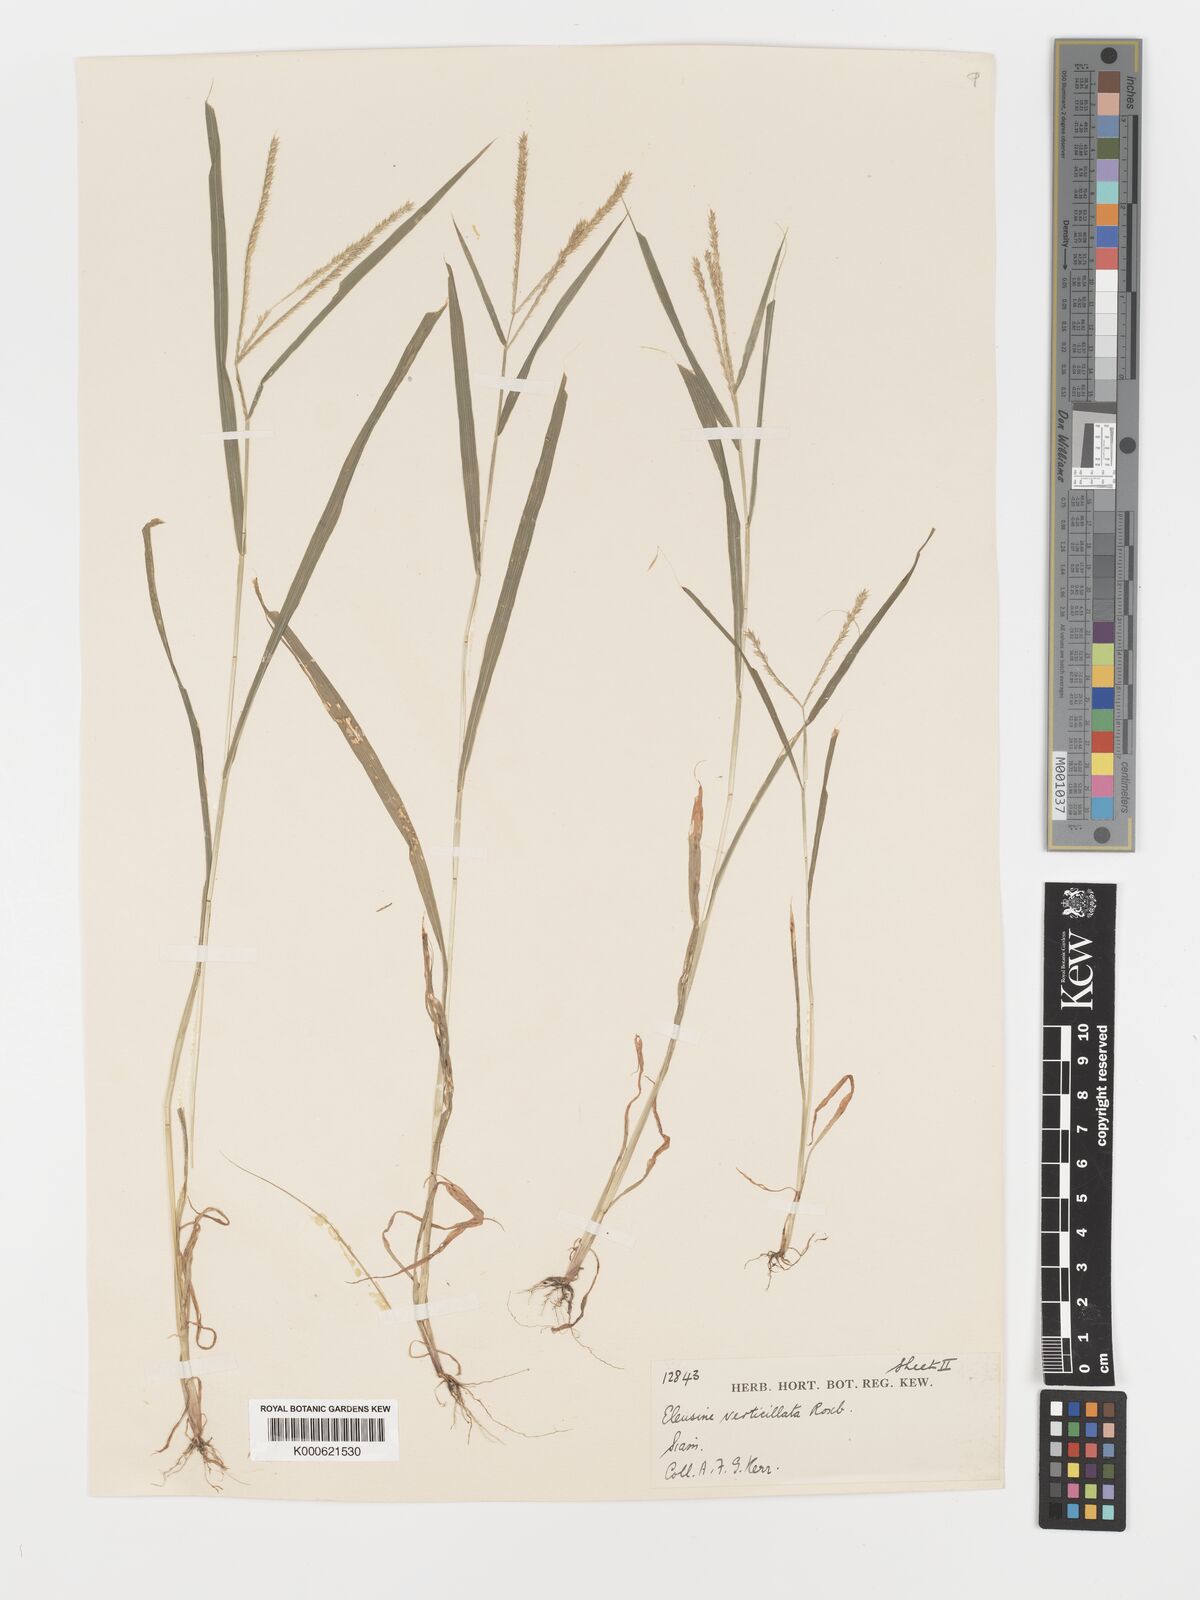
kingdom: Plantae
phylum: Tracheophyta
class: Liliopsida
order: Poales
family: Poaceae
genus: Acrachne
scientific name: Acrachne racemosa
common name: Goosegrass
